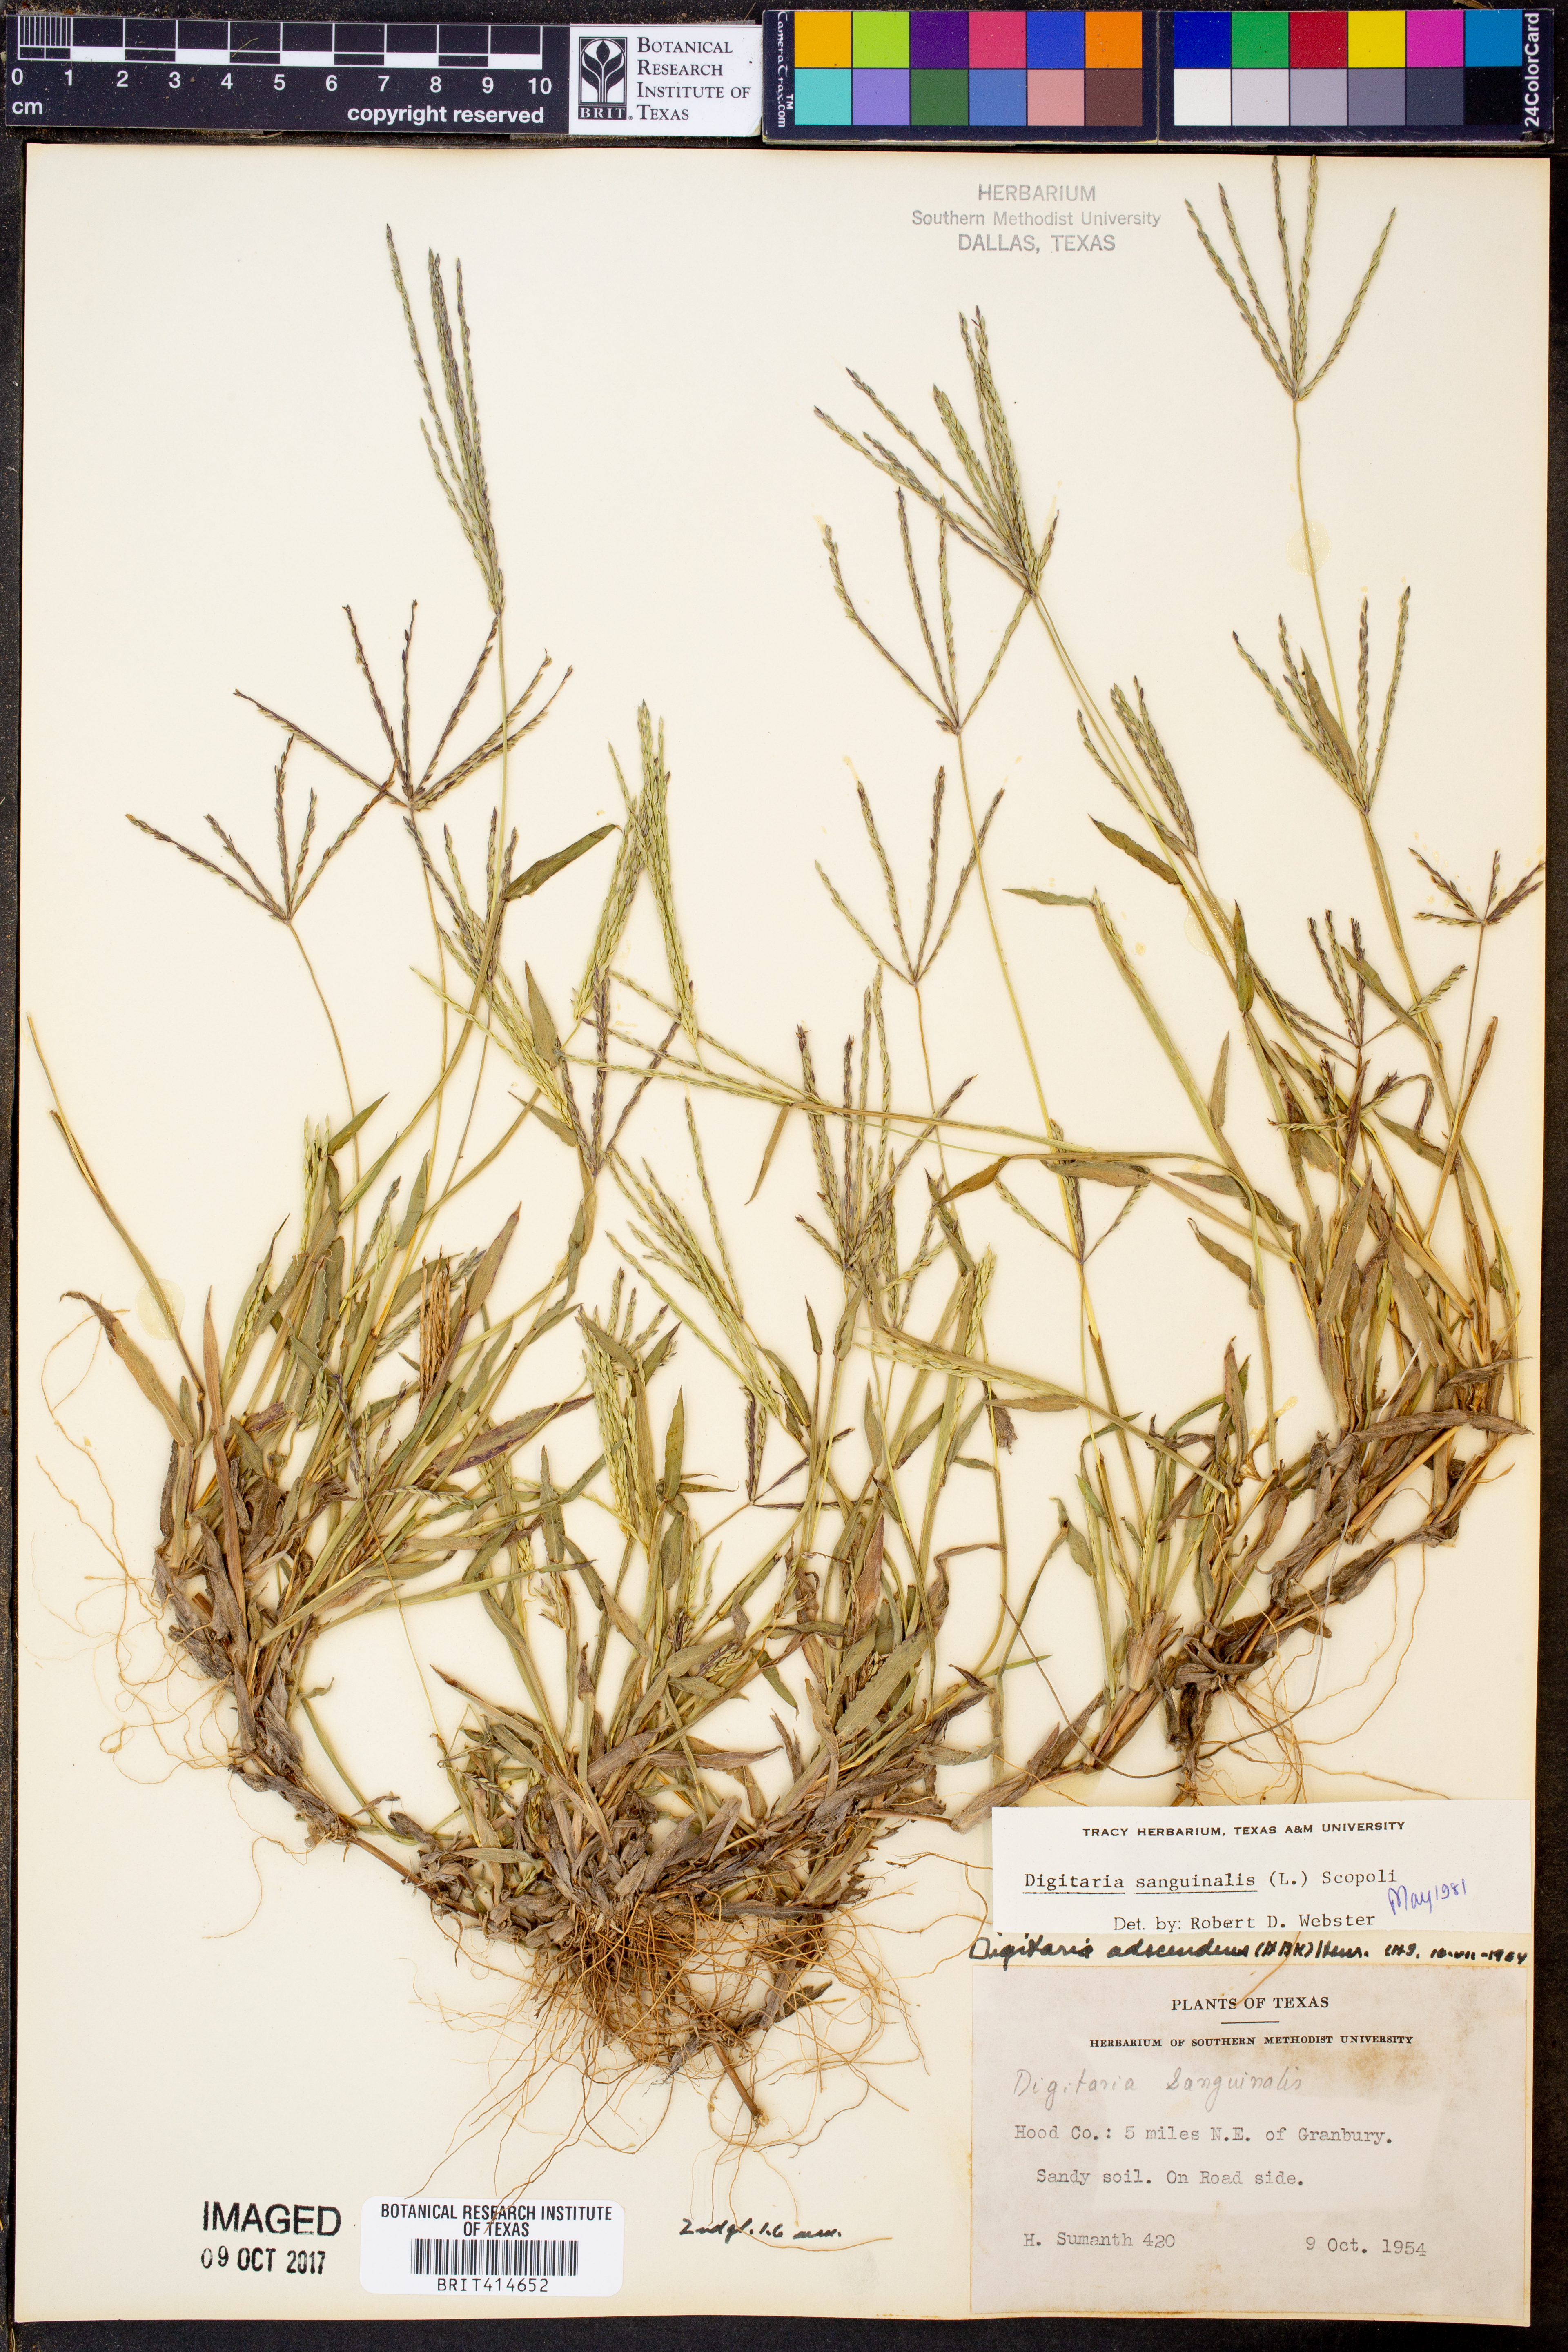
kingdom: Plantae
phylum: Tracheophyta
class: Liliopsida
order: Poales
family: Poaceae
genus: Digitaria
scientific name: Digitaria sanguinalis
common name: Hairy crabgrass
